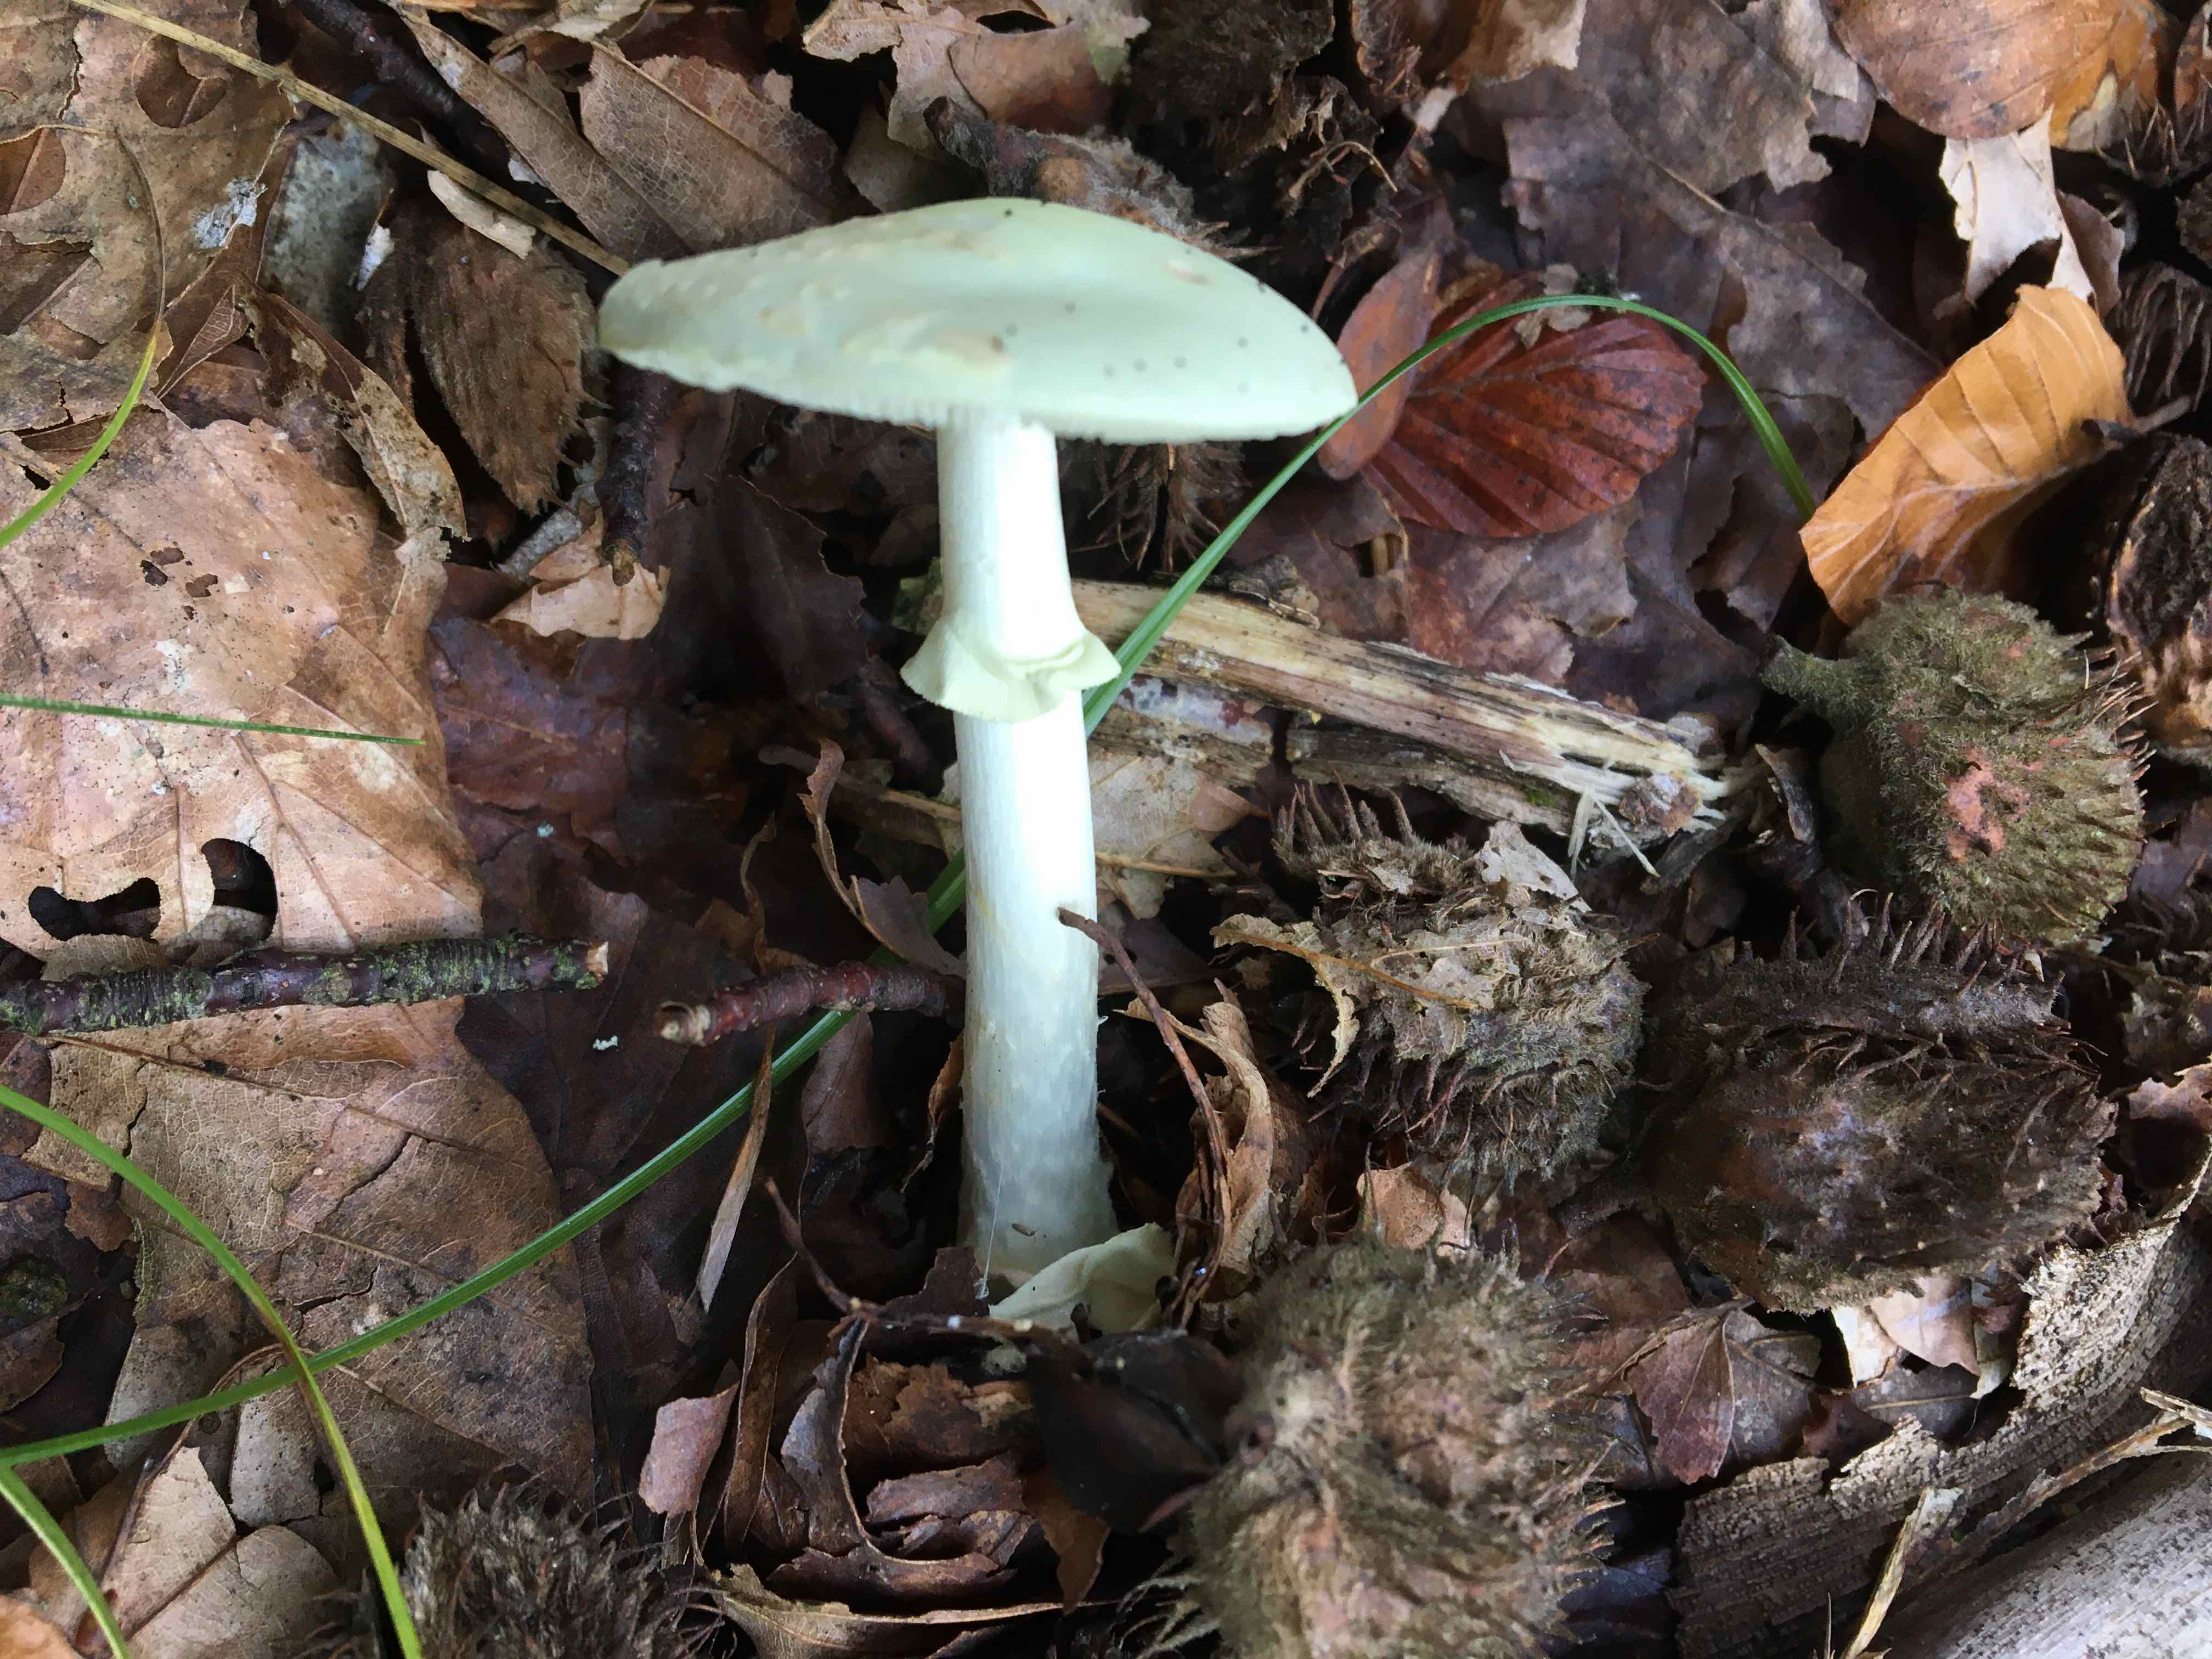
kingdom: Fungi
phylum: Basidiomycota
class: Agaricomycetes
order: Agaricales
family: Amanitaceae
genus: Amanita
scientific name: Amanita citrina
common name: kugleknoldet fluesvamp
